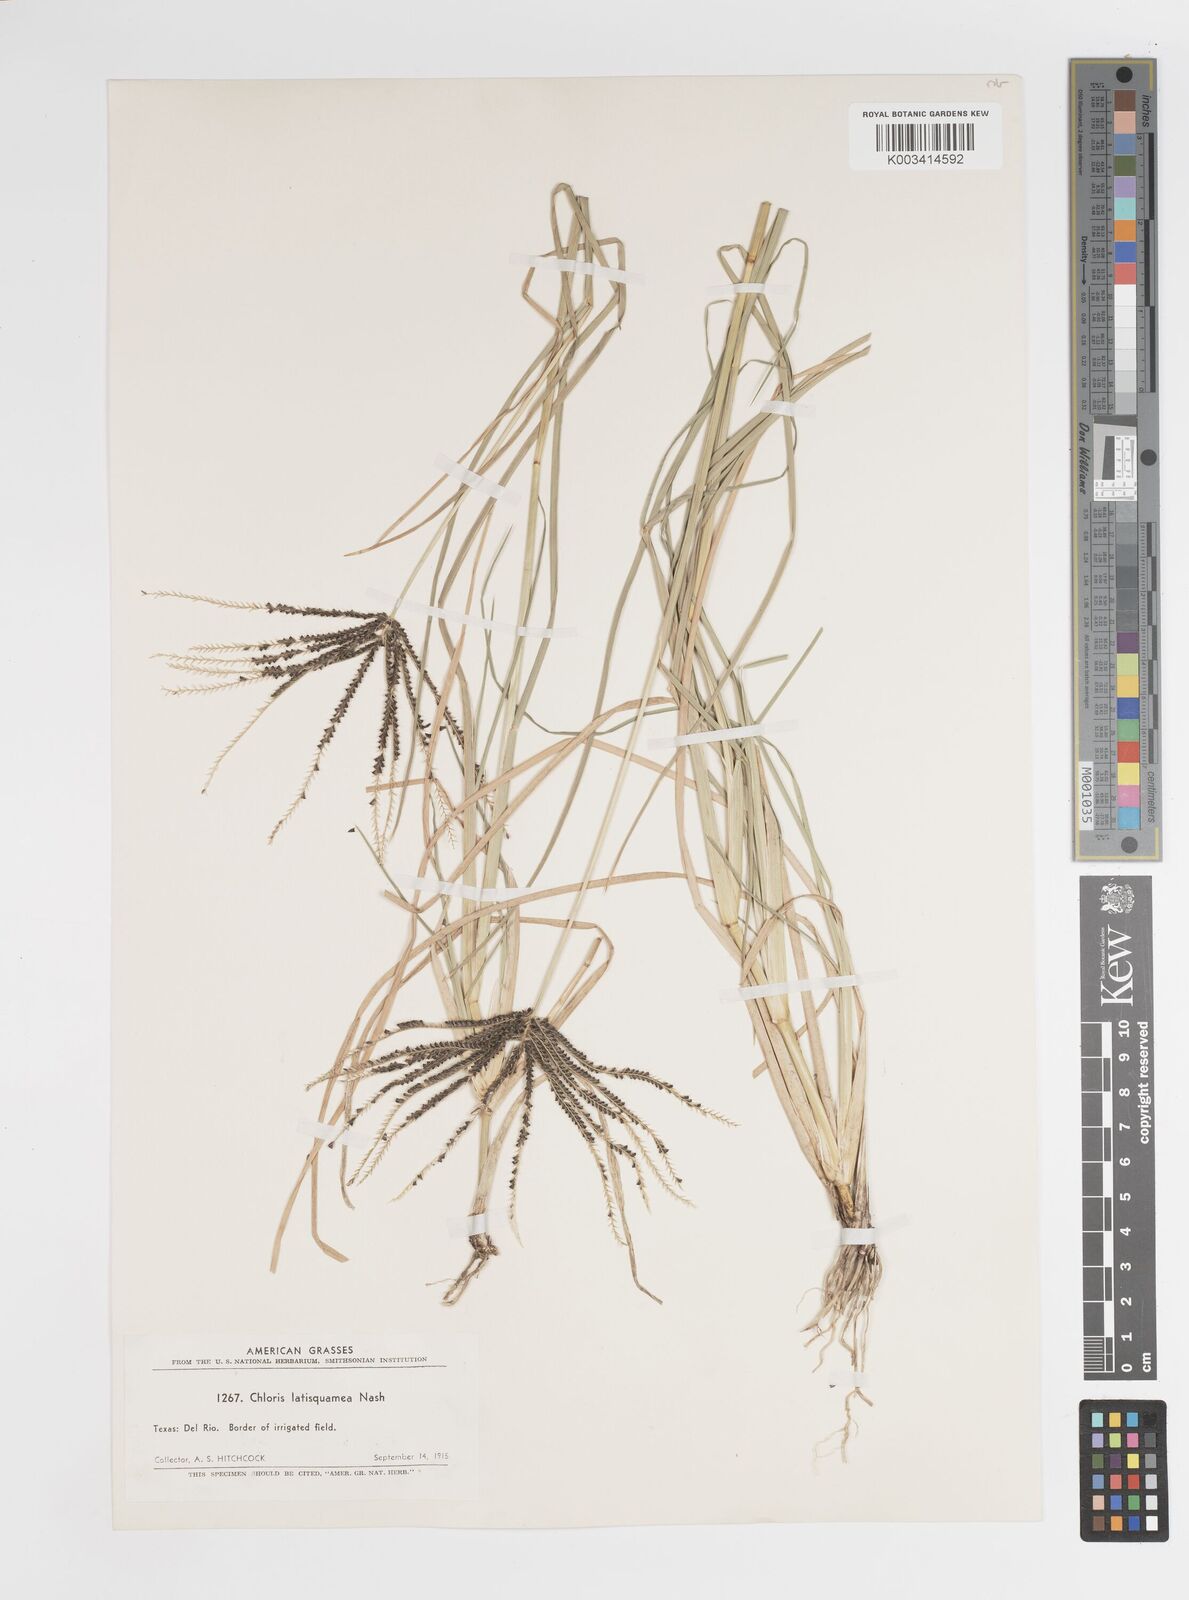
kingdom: Plantae
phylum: Tracheophyta
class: Liliopsida
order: Poales
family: Poaceae
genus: Chloris
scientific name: Chloris subdolichostachya
